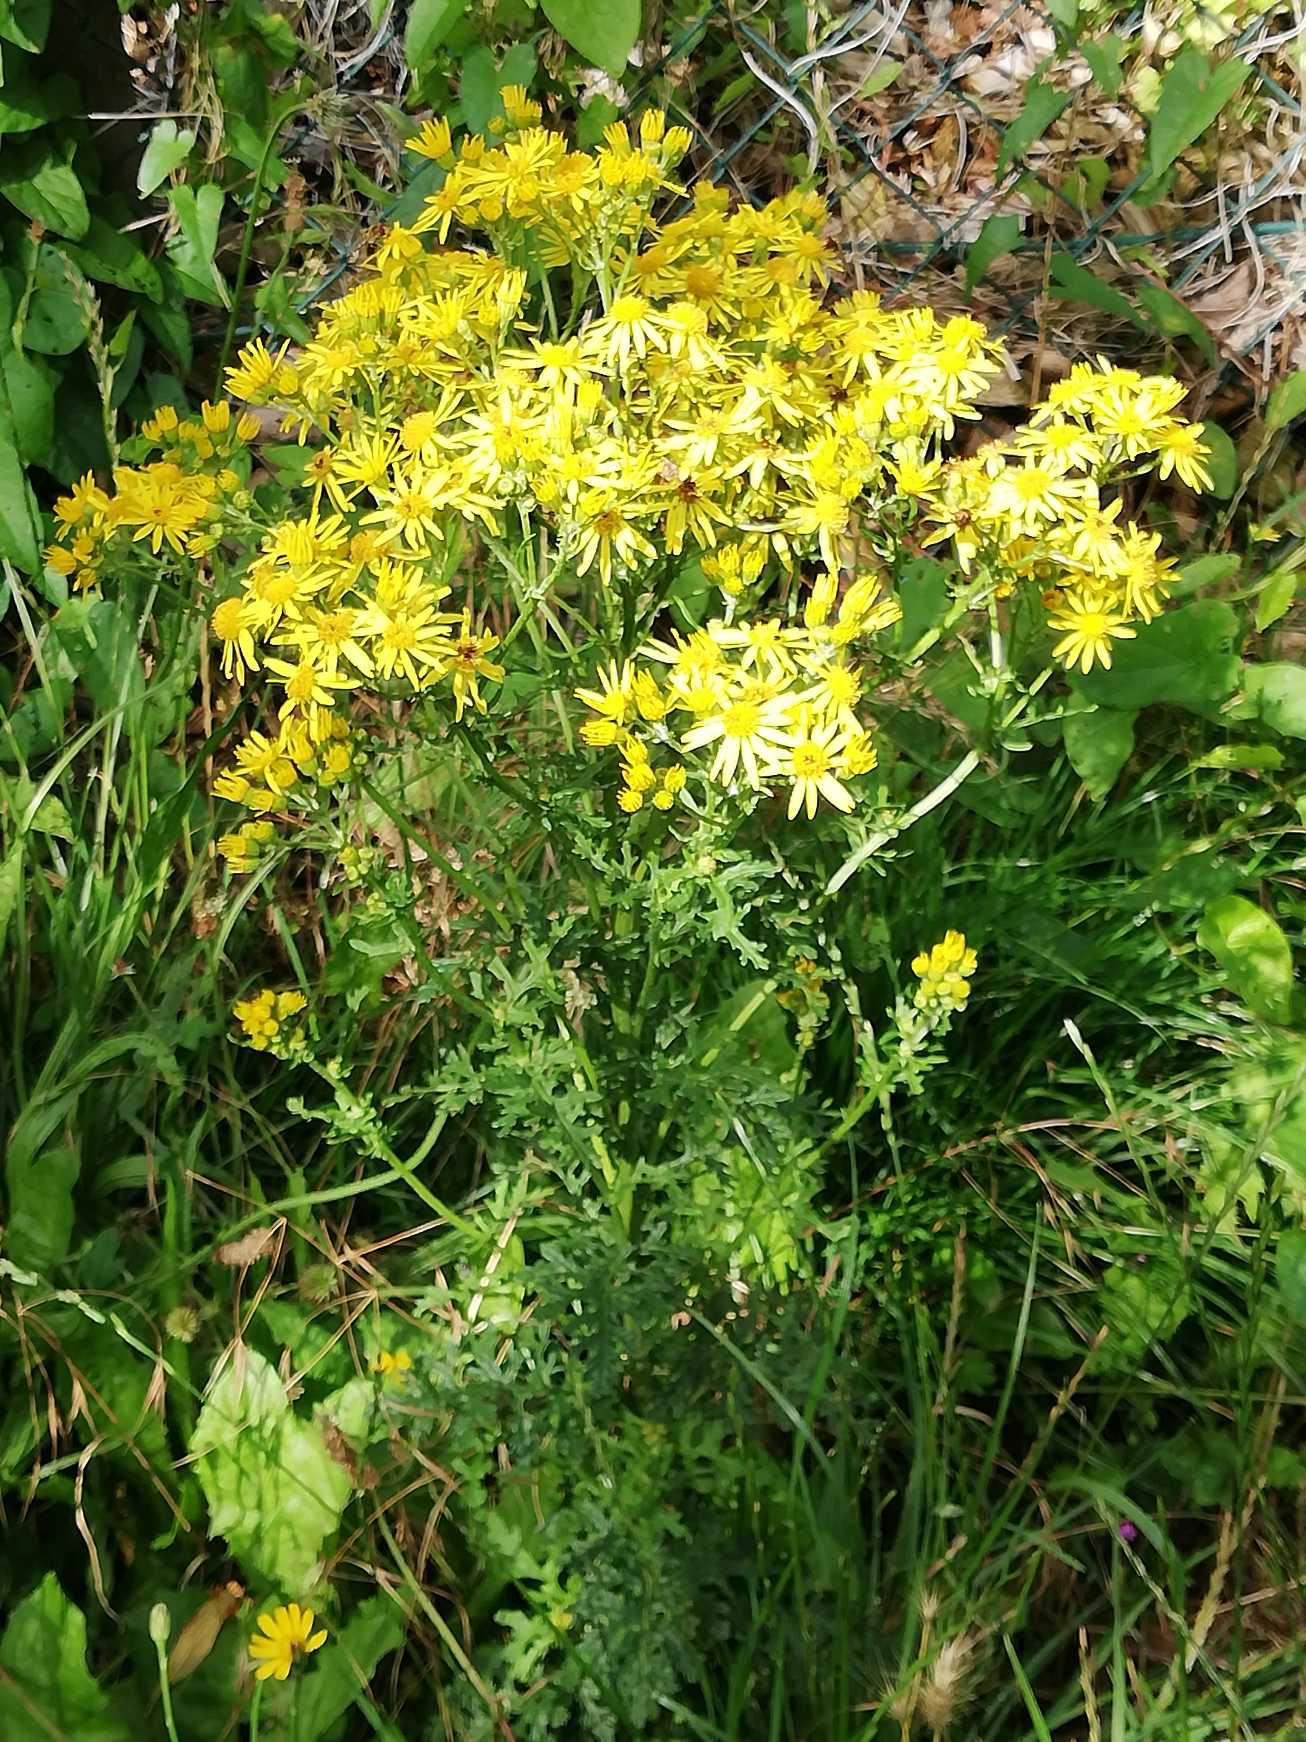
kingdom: Plantae
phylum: Tracheophyta
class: Magnoliopsida
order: Asterales
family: Asteraceae
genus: Jacobaea
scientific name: Jacobaea vulgaris
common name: Eng-brandbæger
